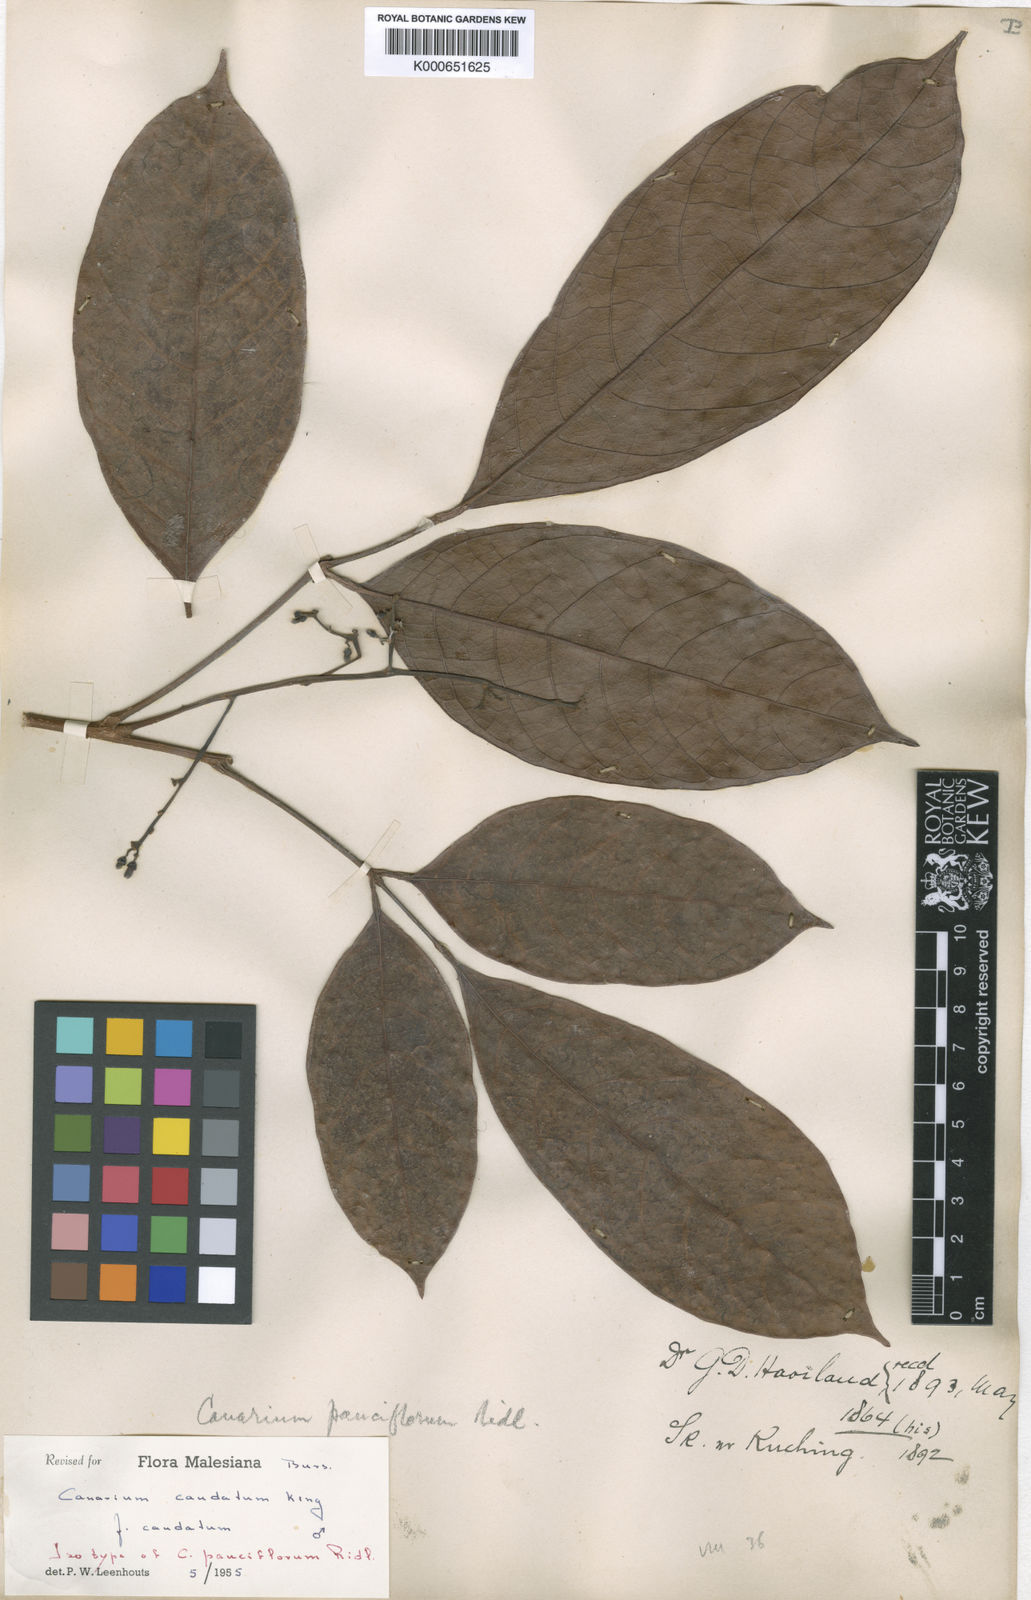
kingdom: Plantae
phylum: Tracheophyta
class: Magnoliopsida
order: Sapindales
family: Burseraceae
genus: Canarium
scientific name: Canarium caudatum
